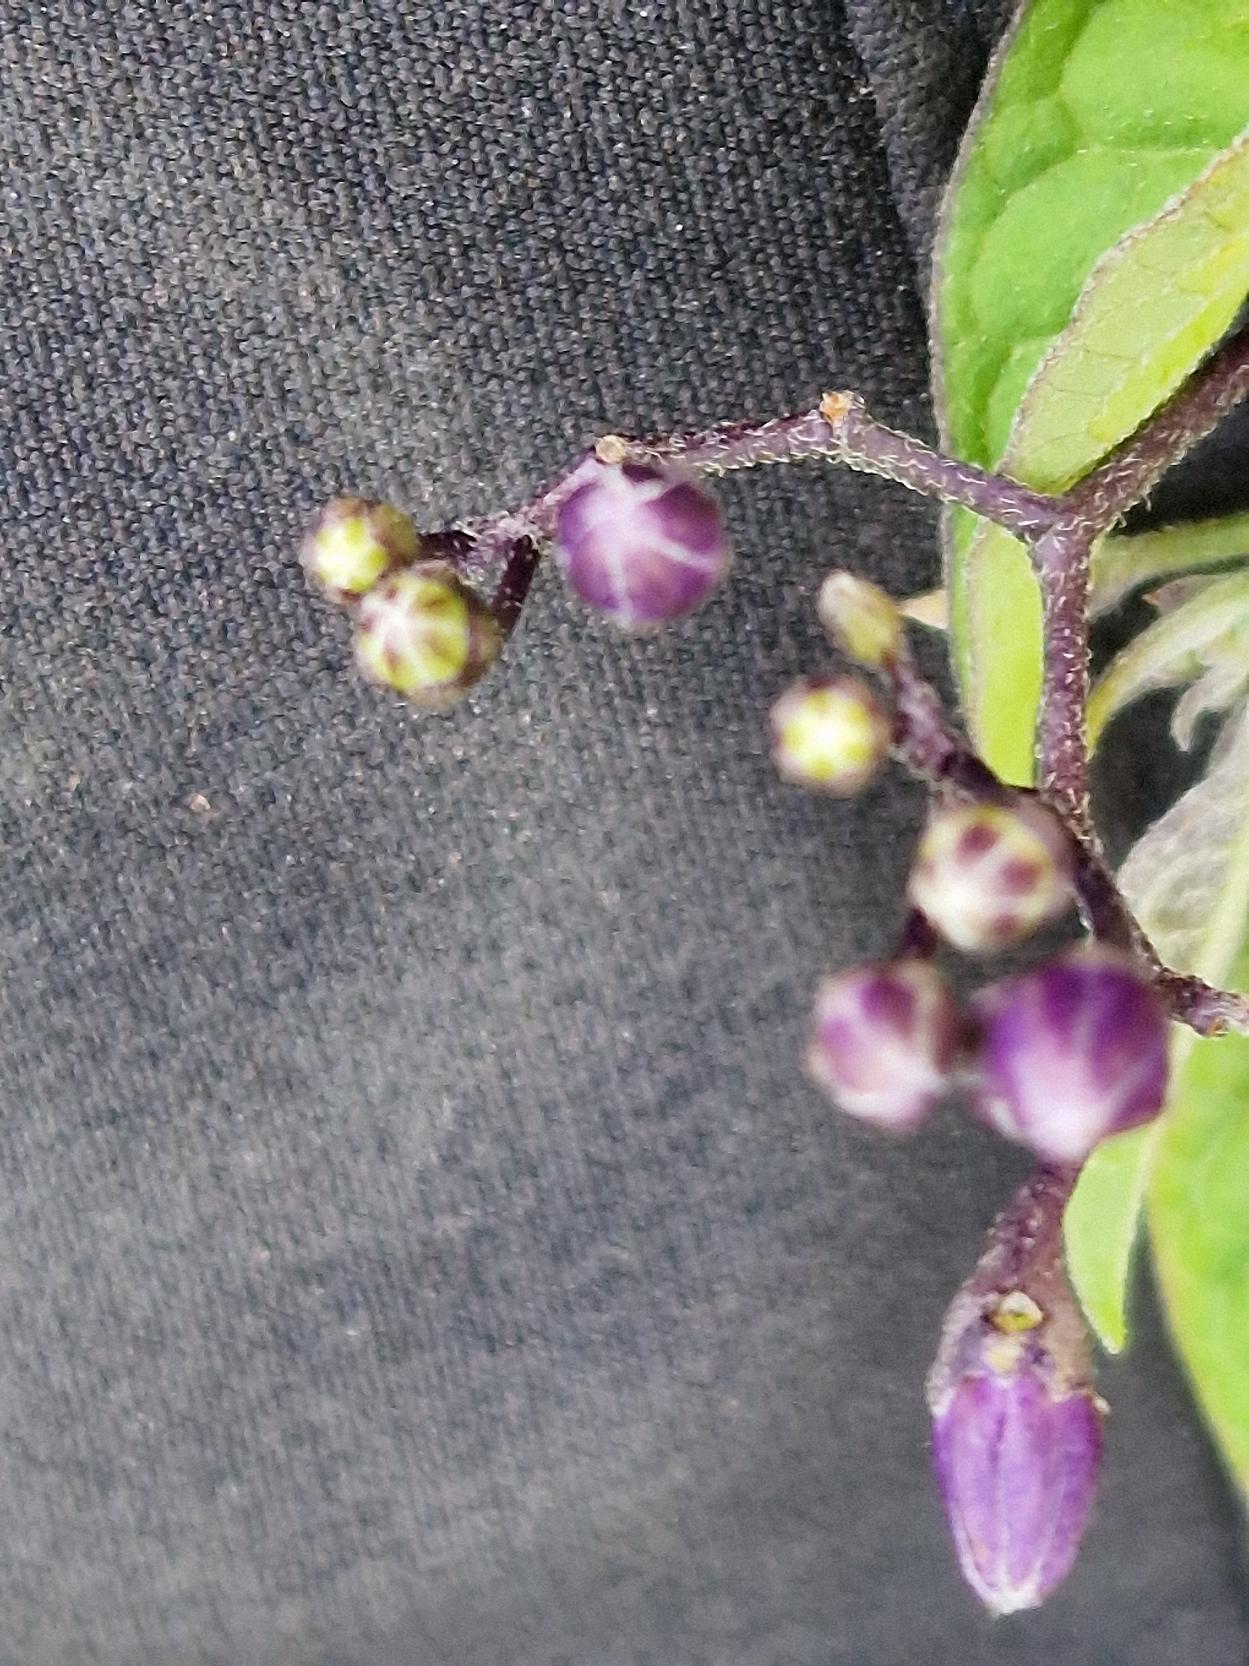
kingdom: Plantae
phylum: Tracheophyta
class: Magnoliopsida
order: Solanales
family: Solanaceae
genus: Solanum
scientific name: Solanum dulcamara
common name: Bittersød natskygge
